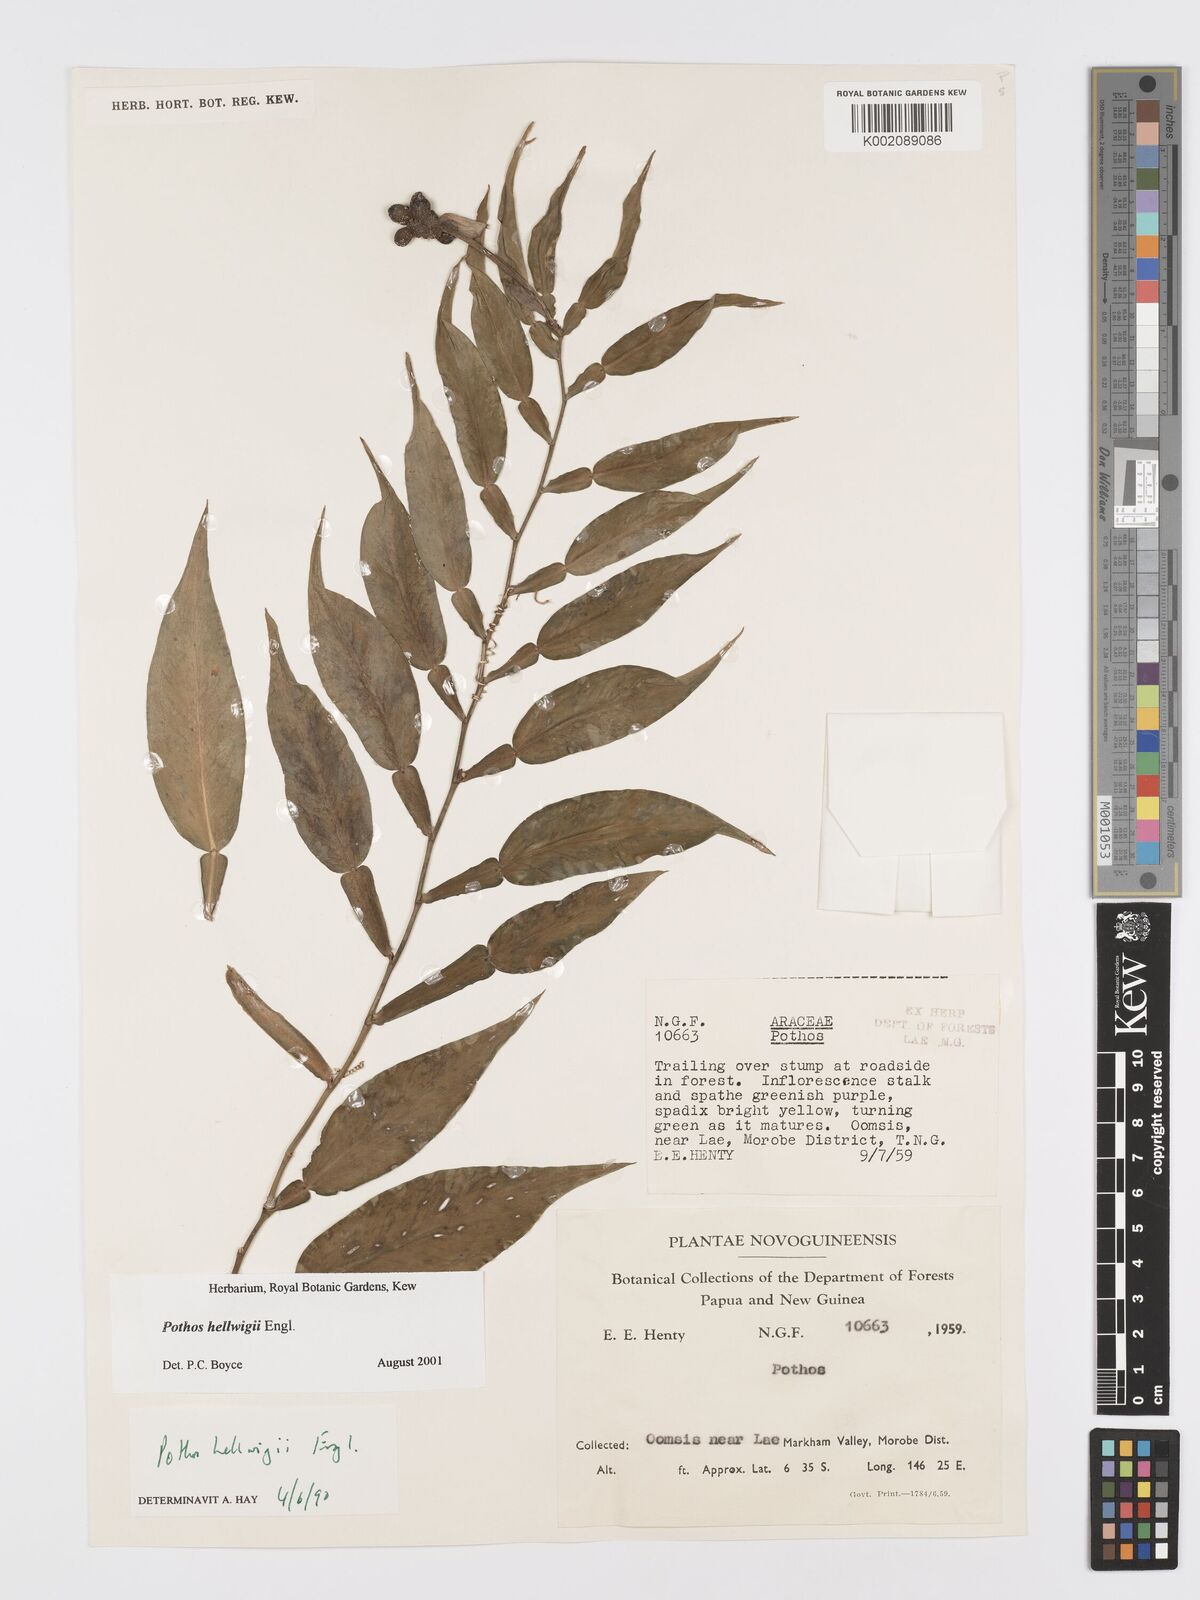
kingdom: Plantae
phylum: Tracheophyta
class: Liliopsida
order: Alismatales
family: Araceae
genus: Pothos
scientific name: Pothos hellwigii
